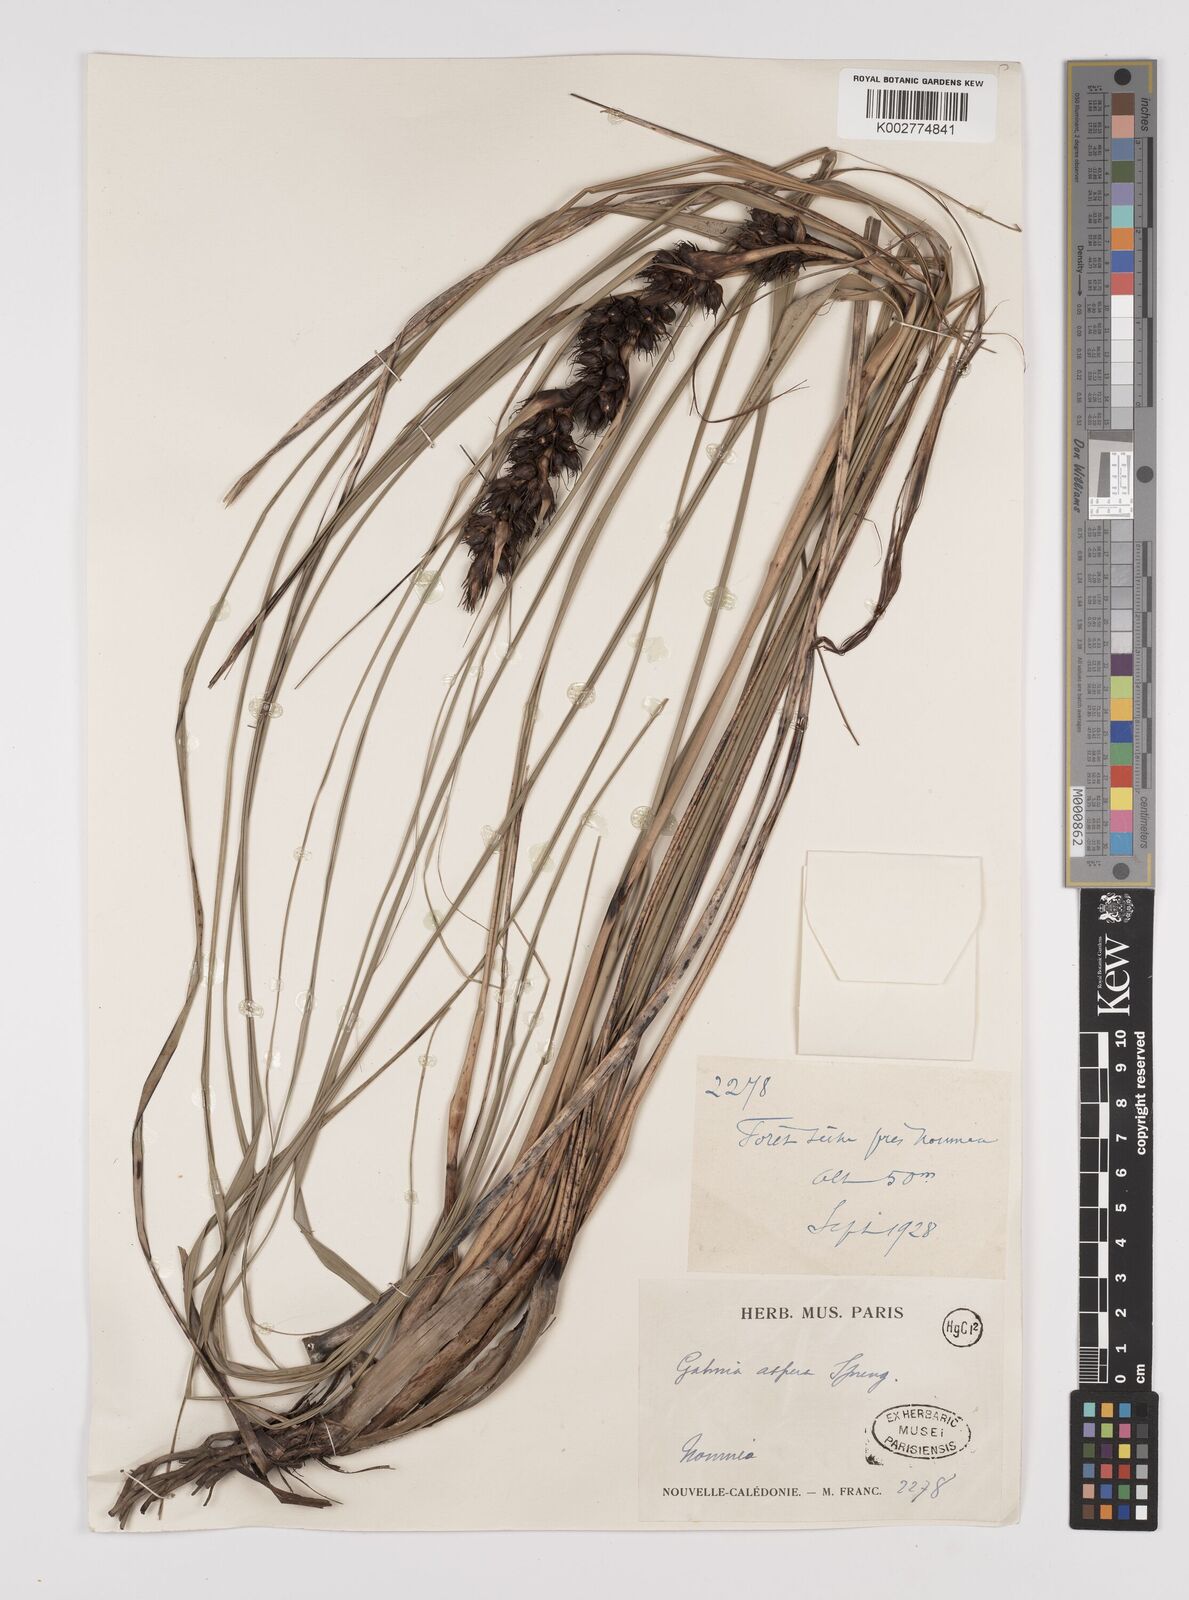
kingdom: Plantae
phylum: Tracheophyta
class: Liliopsida
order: Poales
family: Cyperaceae
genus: Gahnia
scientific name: Gahnia aspera
